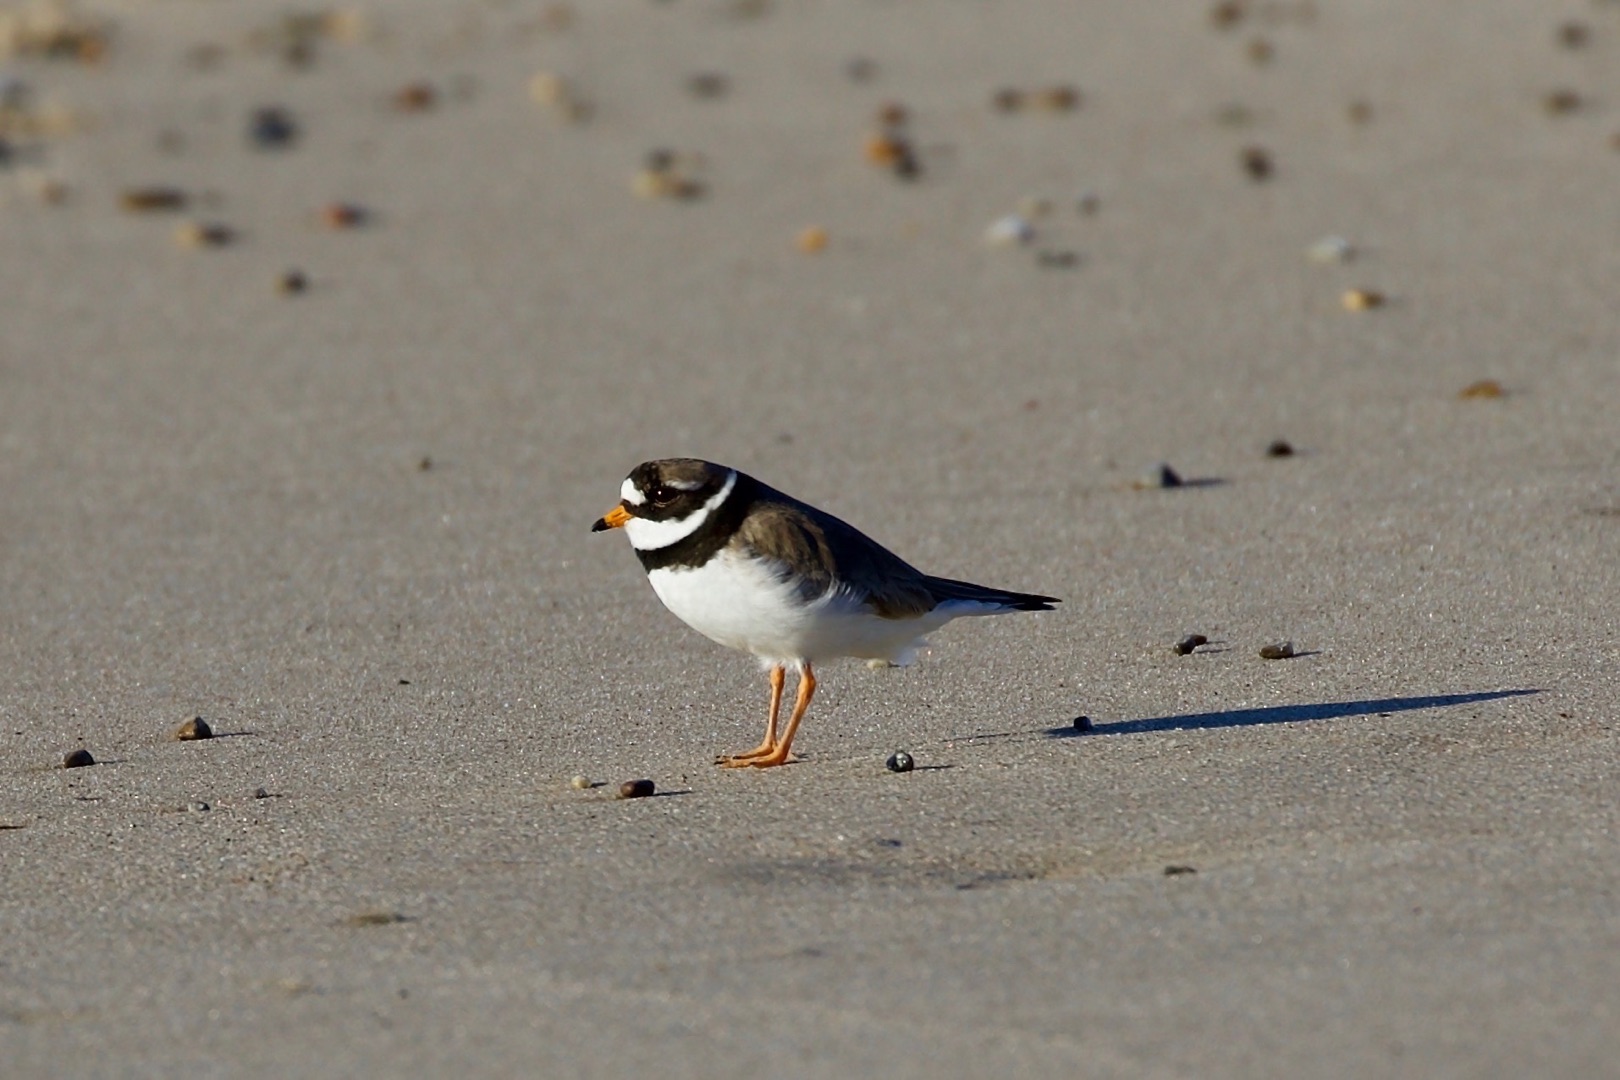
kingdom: Animalia
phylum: Chordata
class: Aves
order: Charadriiformes
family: Charadriidae
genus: Charadrius
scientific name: Charadrius hiaticula
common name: Stor præstekrave
